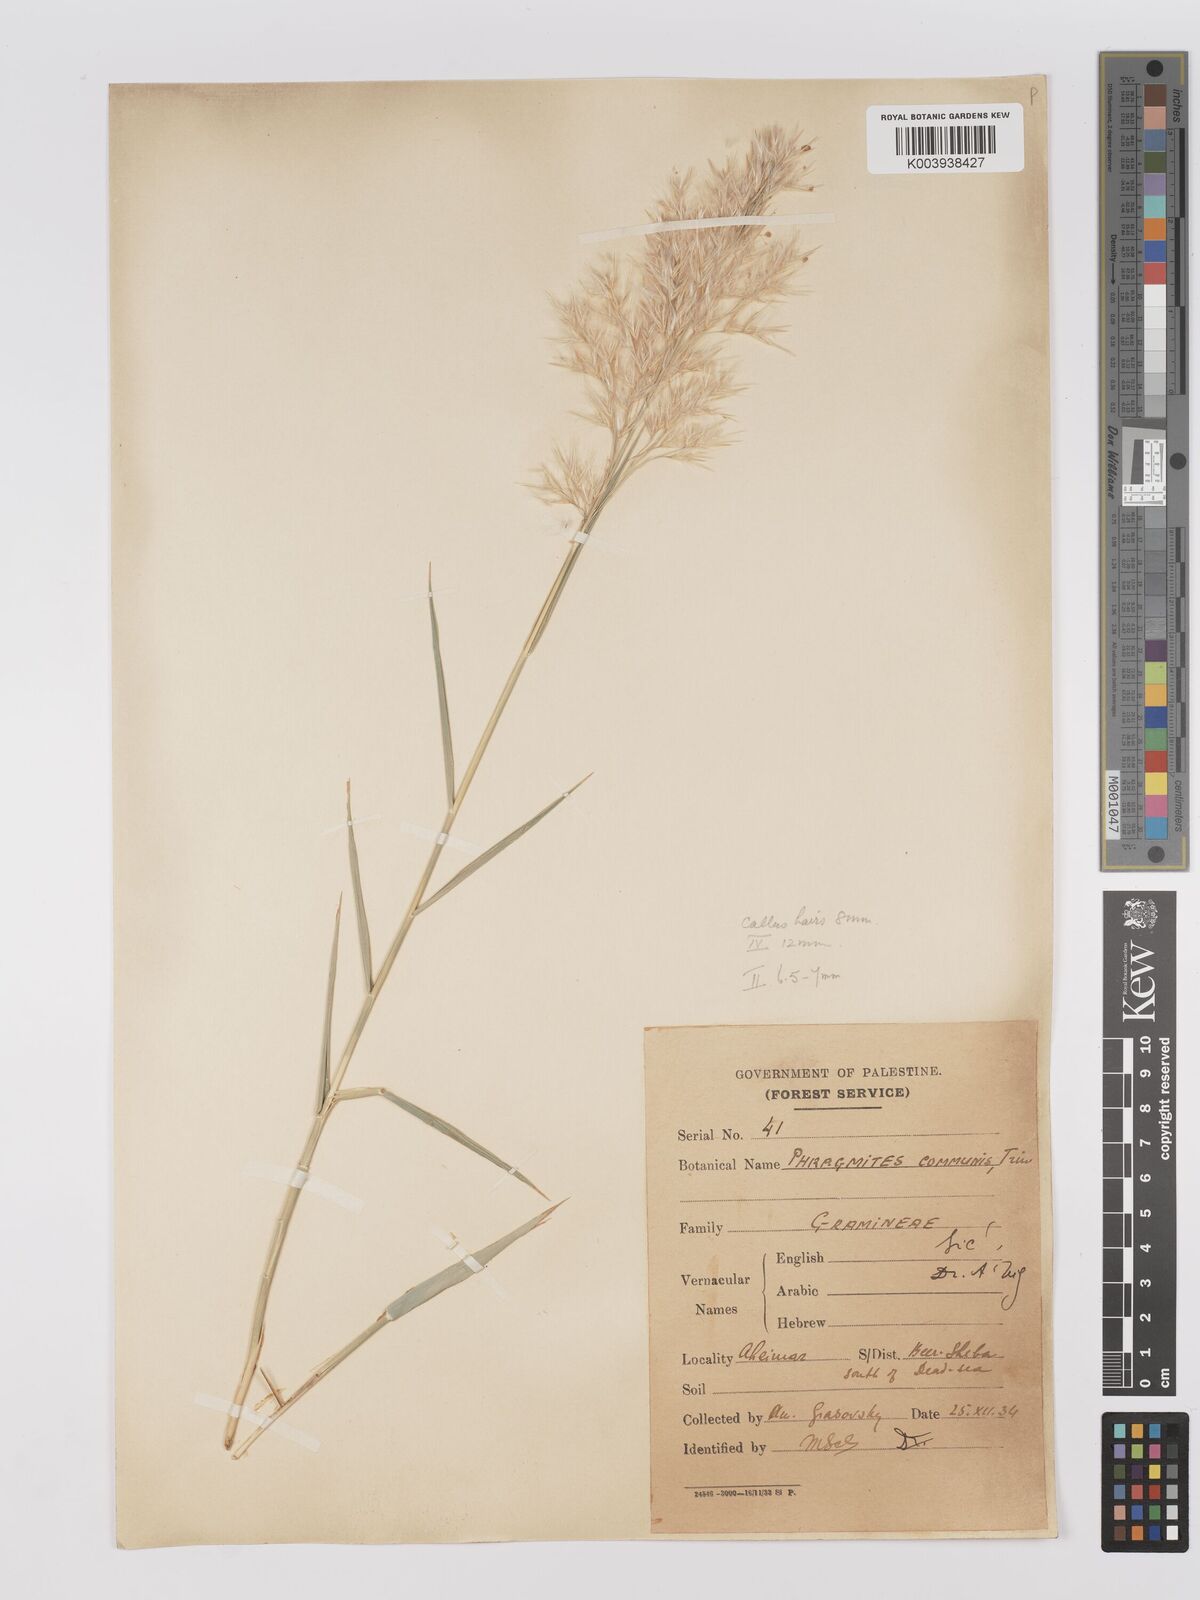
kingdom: Plantae
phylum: Tracheophyta
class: Liliopsida
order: Poales
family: Poaceae
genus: Phragmites
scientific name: Phragmites australis
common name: Common reed
